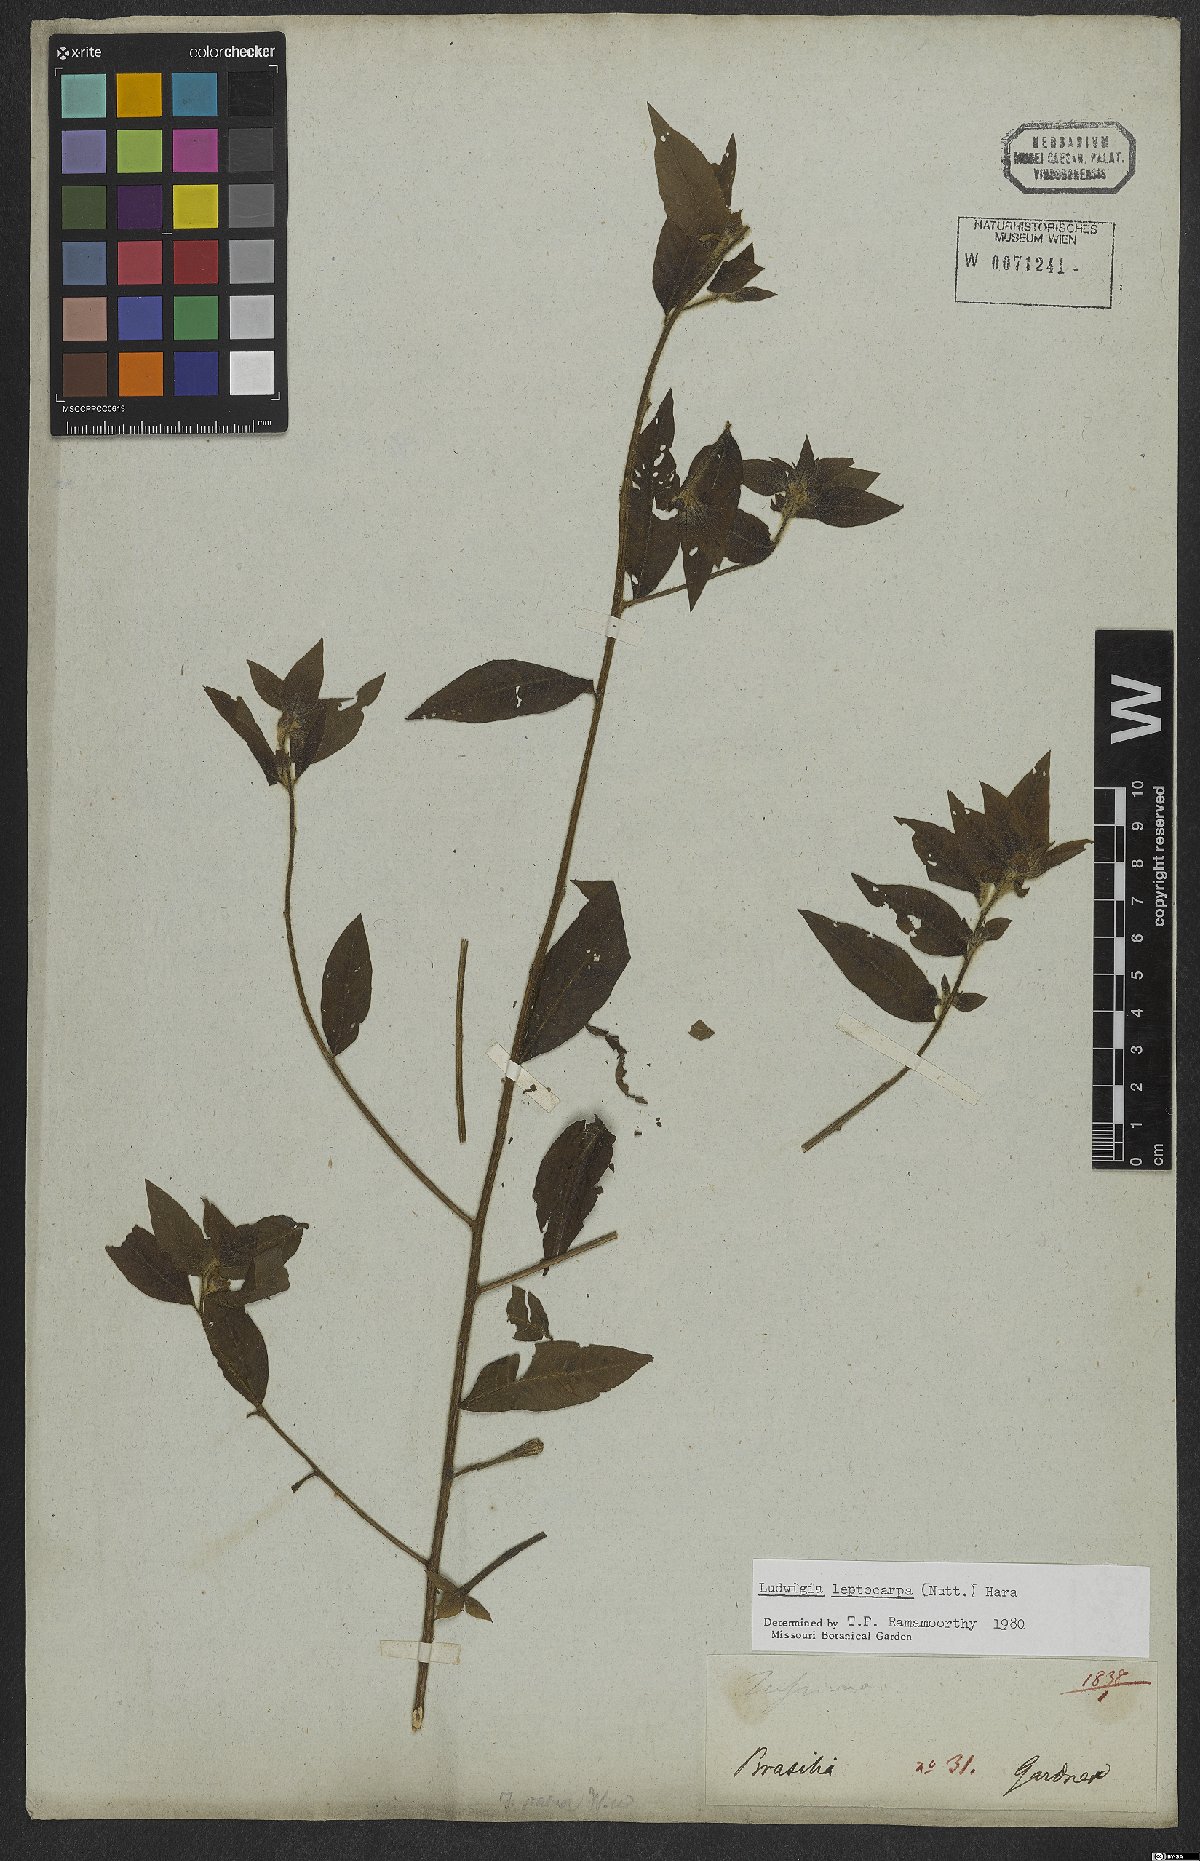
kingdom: Plantae
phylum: Tracheophyta
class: Magnoliopsida
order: Myrtales
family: Onagraceae
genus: Ludwigia
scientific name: Ludwigia leptocarpa
